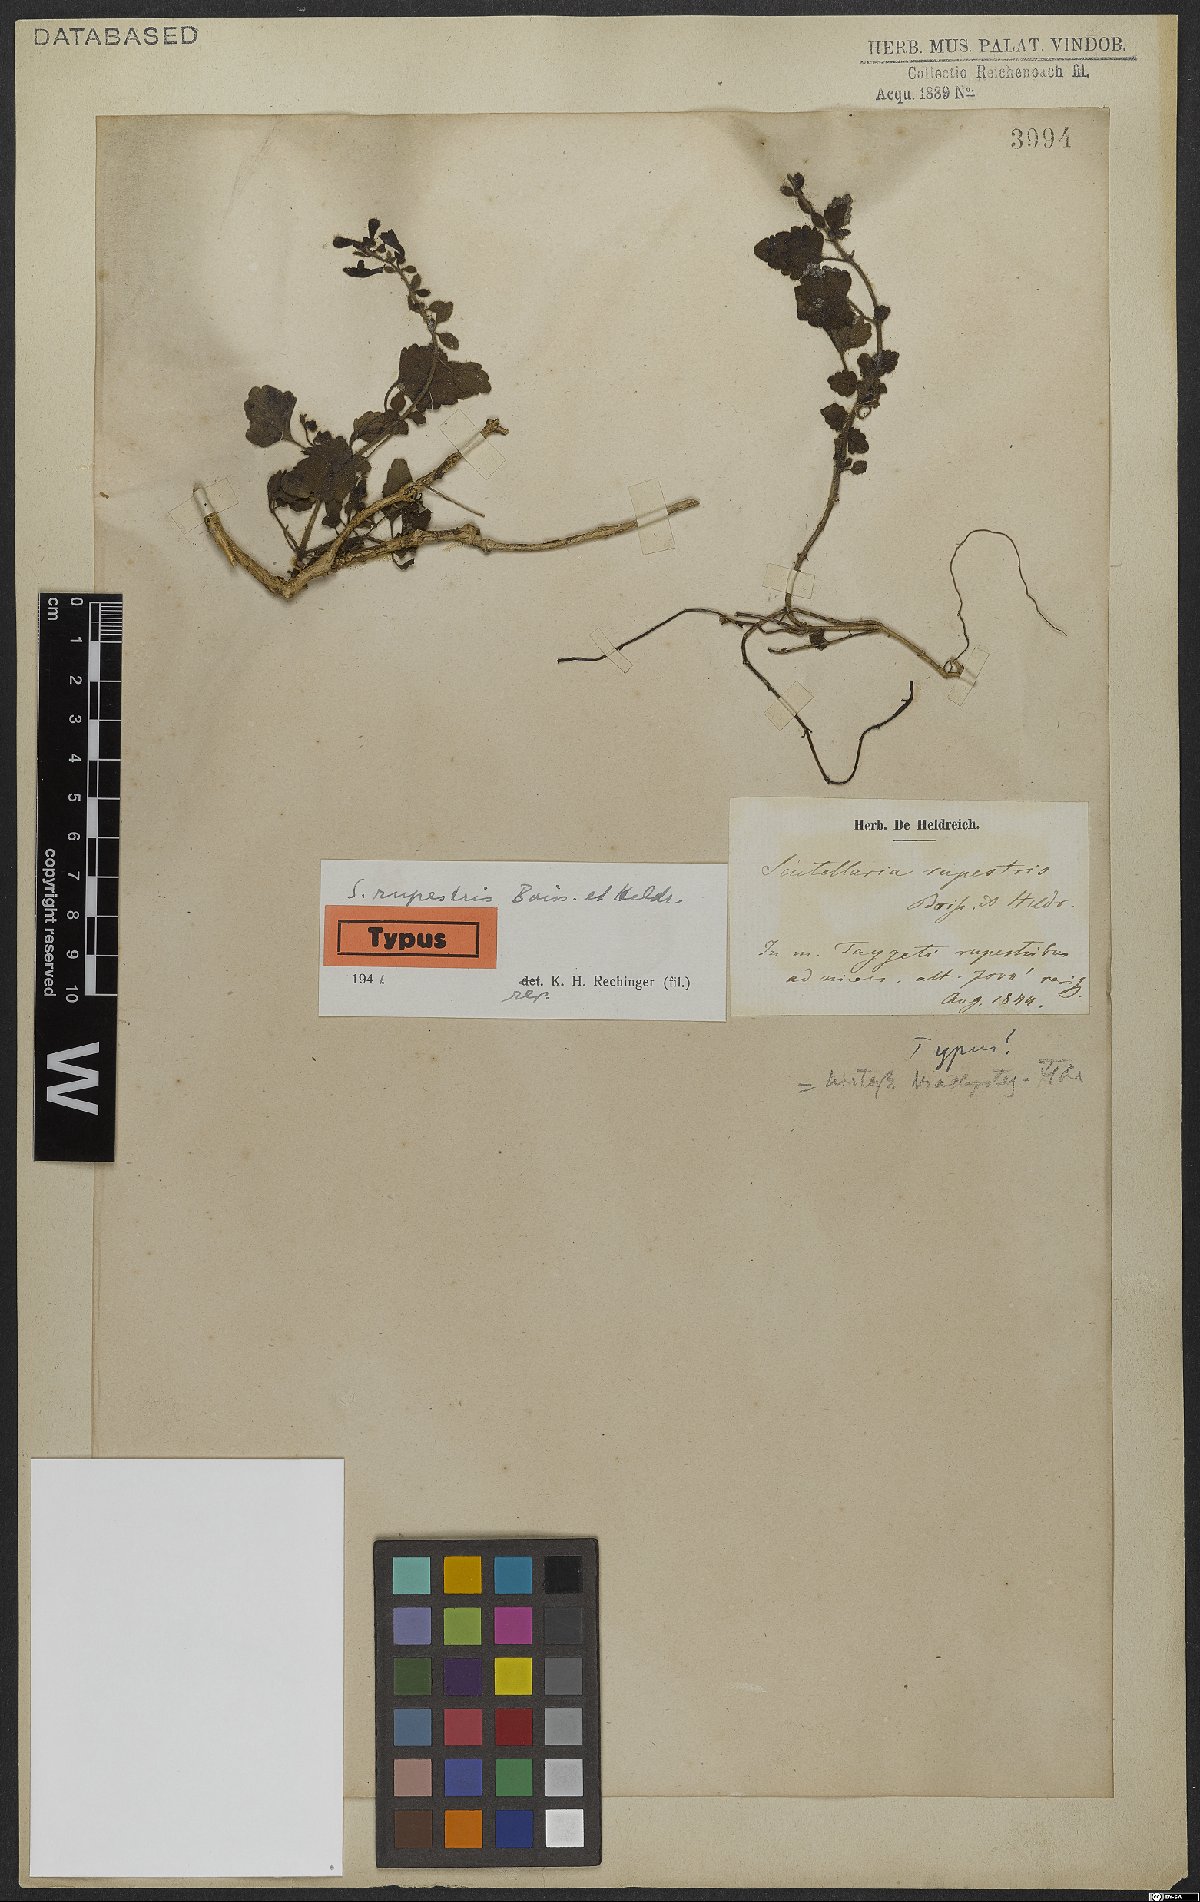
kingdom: Plantae
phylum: Tracheophyta
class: Magnoliopsida
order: Lamiales
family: Lamiaceae
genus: Scutellaria
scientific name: Scutellaria rupestris
